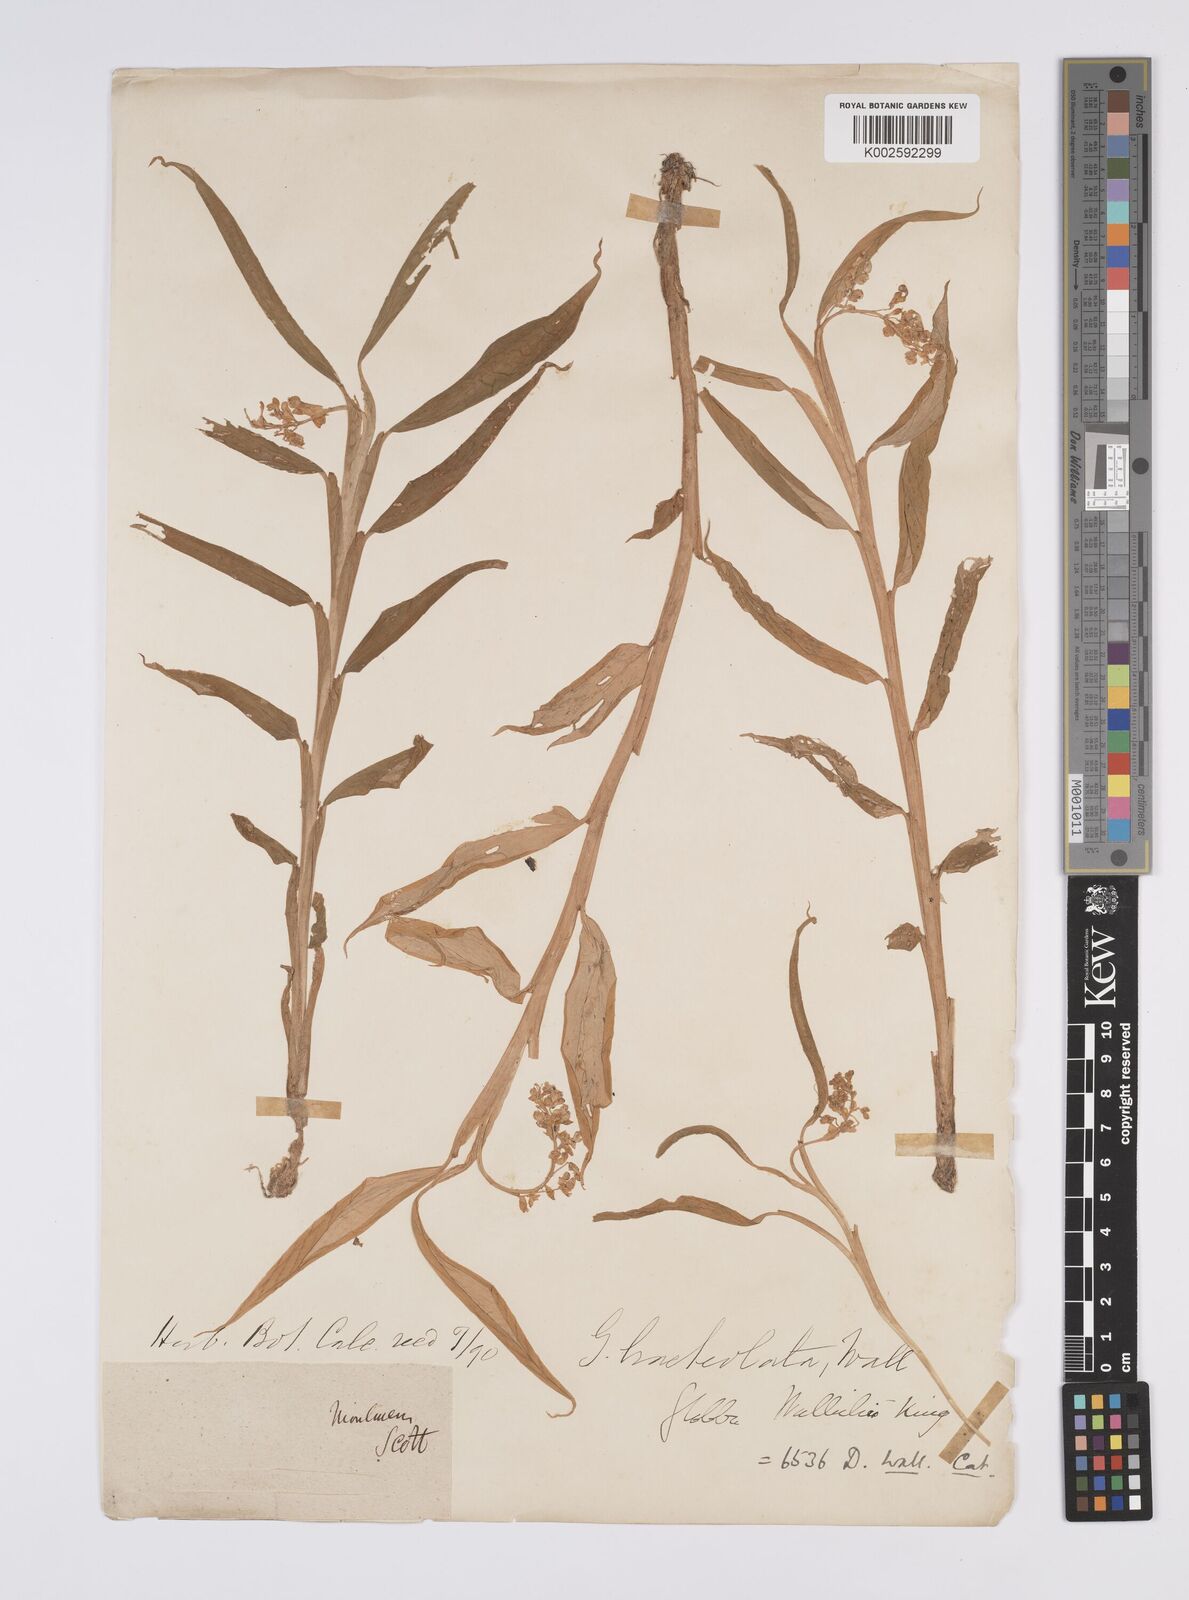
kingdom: Plantae
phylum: Tracheophyta
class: Liliopsida
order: Zingiberales
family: Zingiberaceae
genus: Globba
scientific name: Globba bracteolata
